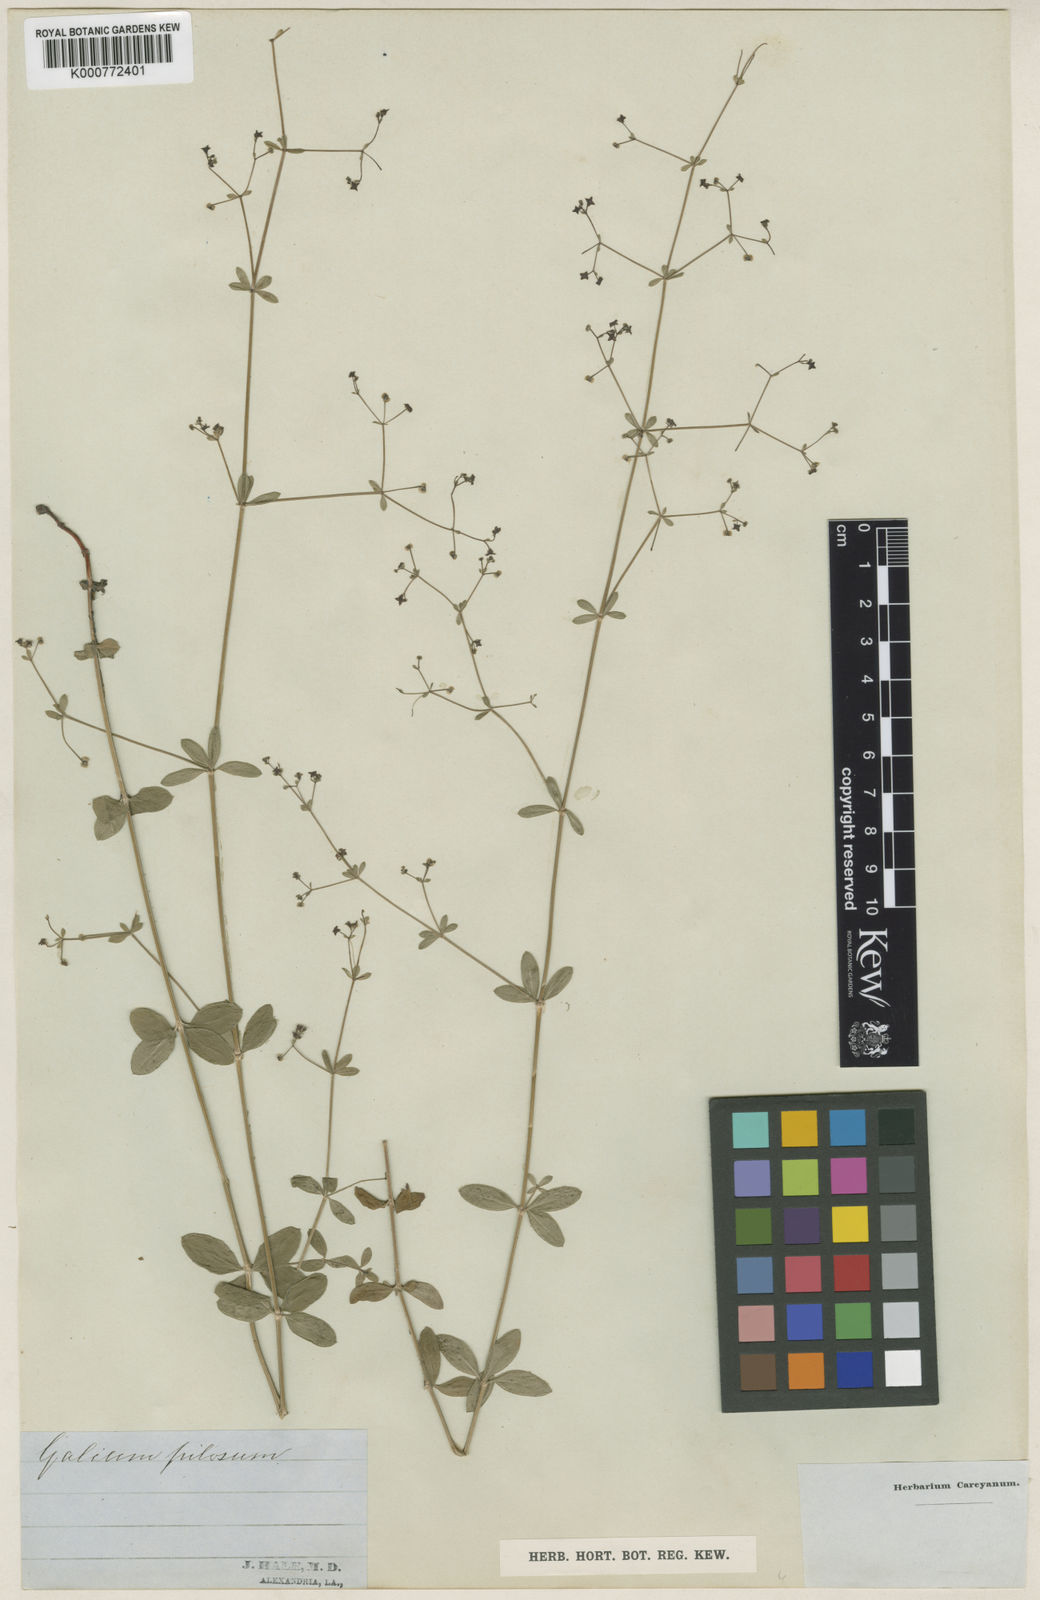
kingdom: Plantae
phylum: Tracheophyta
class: Magnoliopsida
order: Gentianales
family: Rubiaceae
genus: Galium
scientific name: Galium pilosum
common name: Hairy bedstraw
